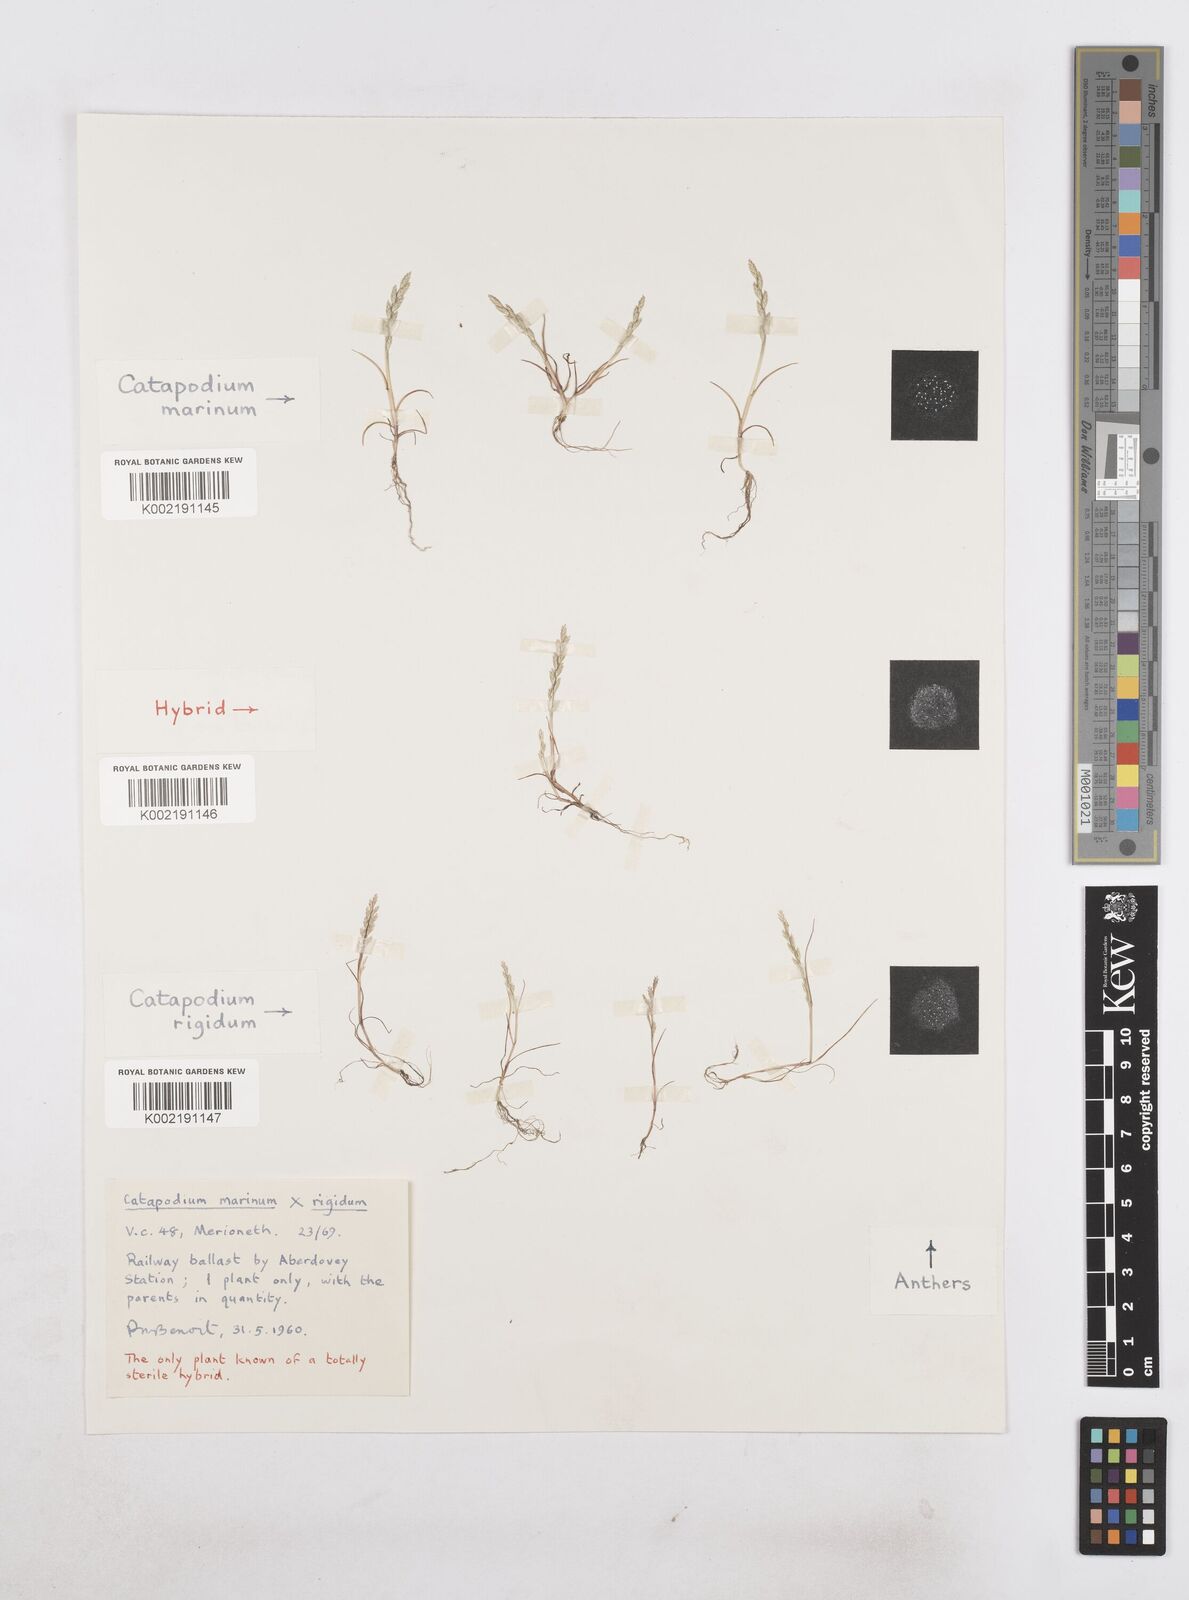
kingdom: Plantae
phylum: Tracheophyta
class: Liliopsida
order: Poales
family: Poaceae
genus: Catapodium
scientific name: Catapodium marinum
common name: Sea fern-grass
